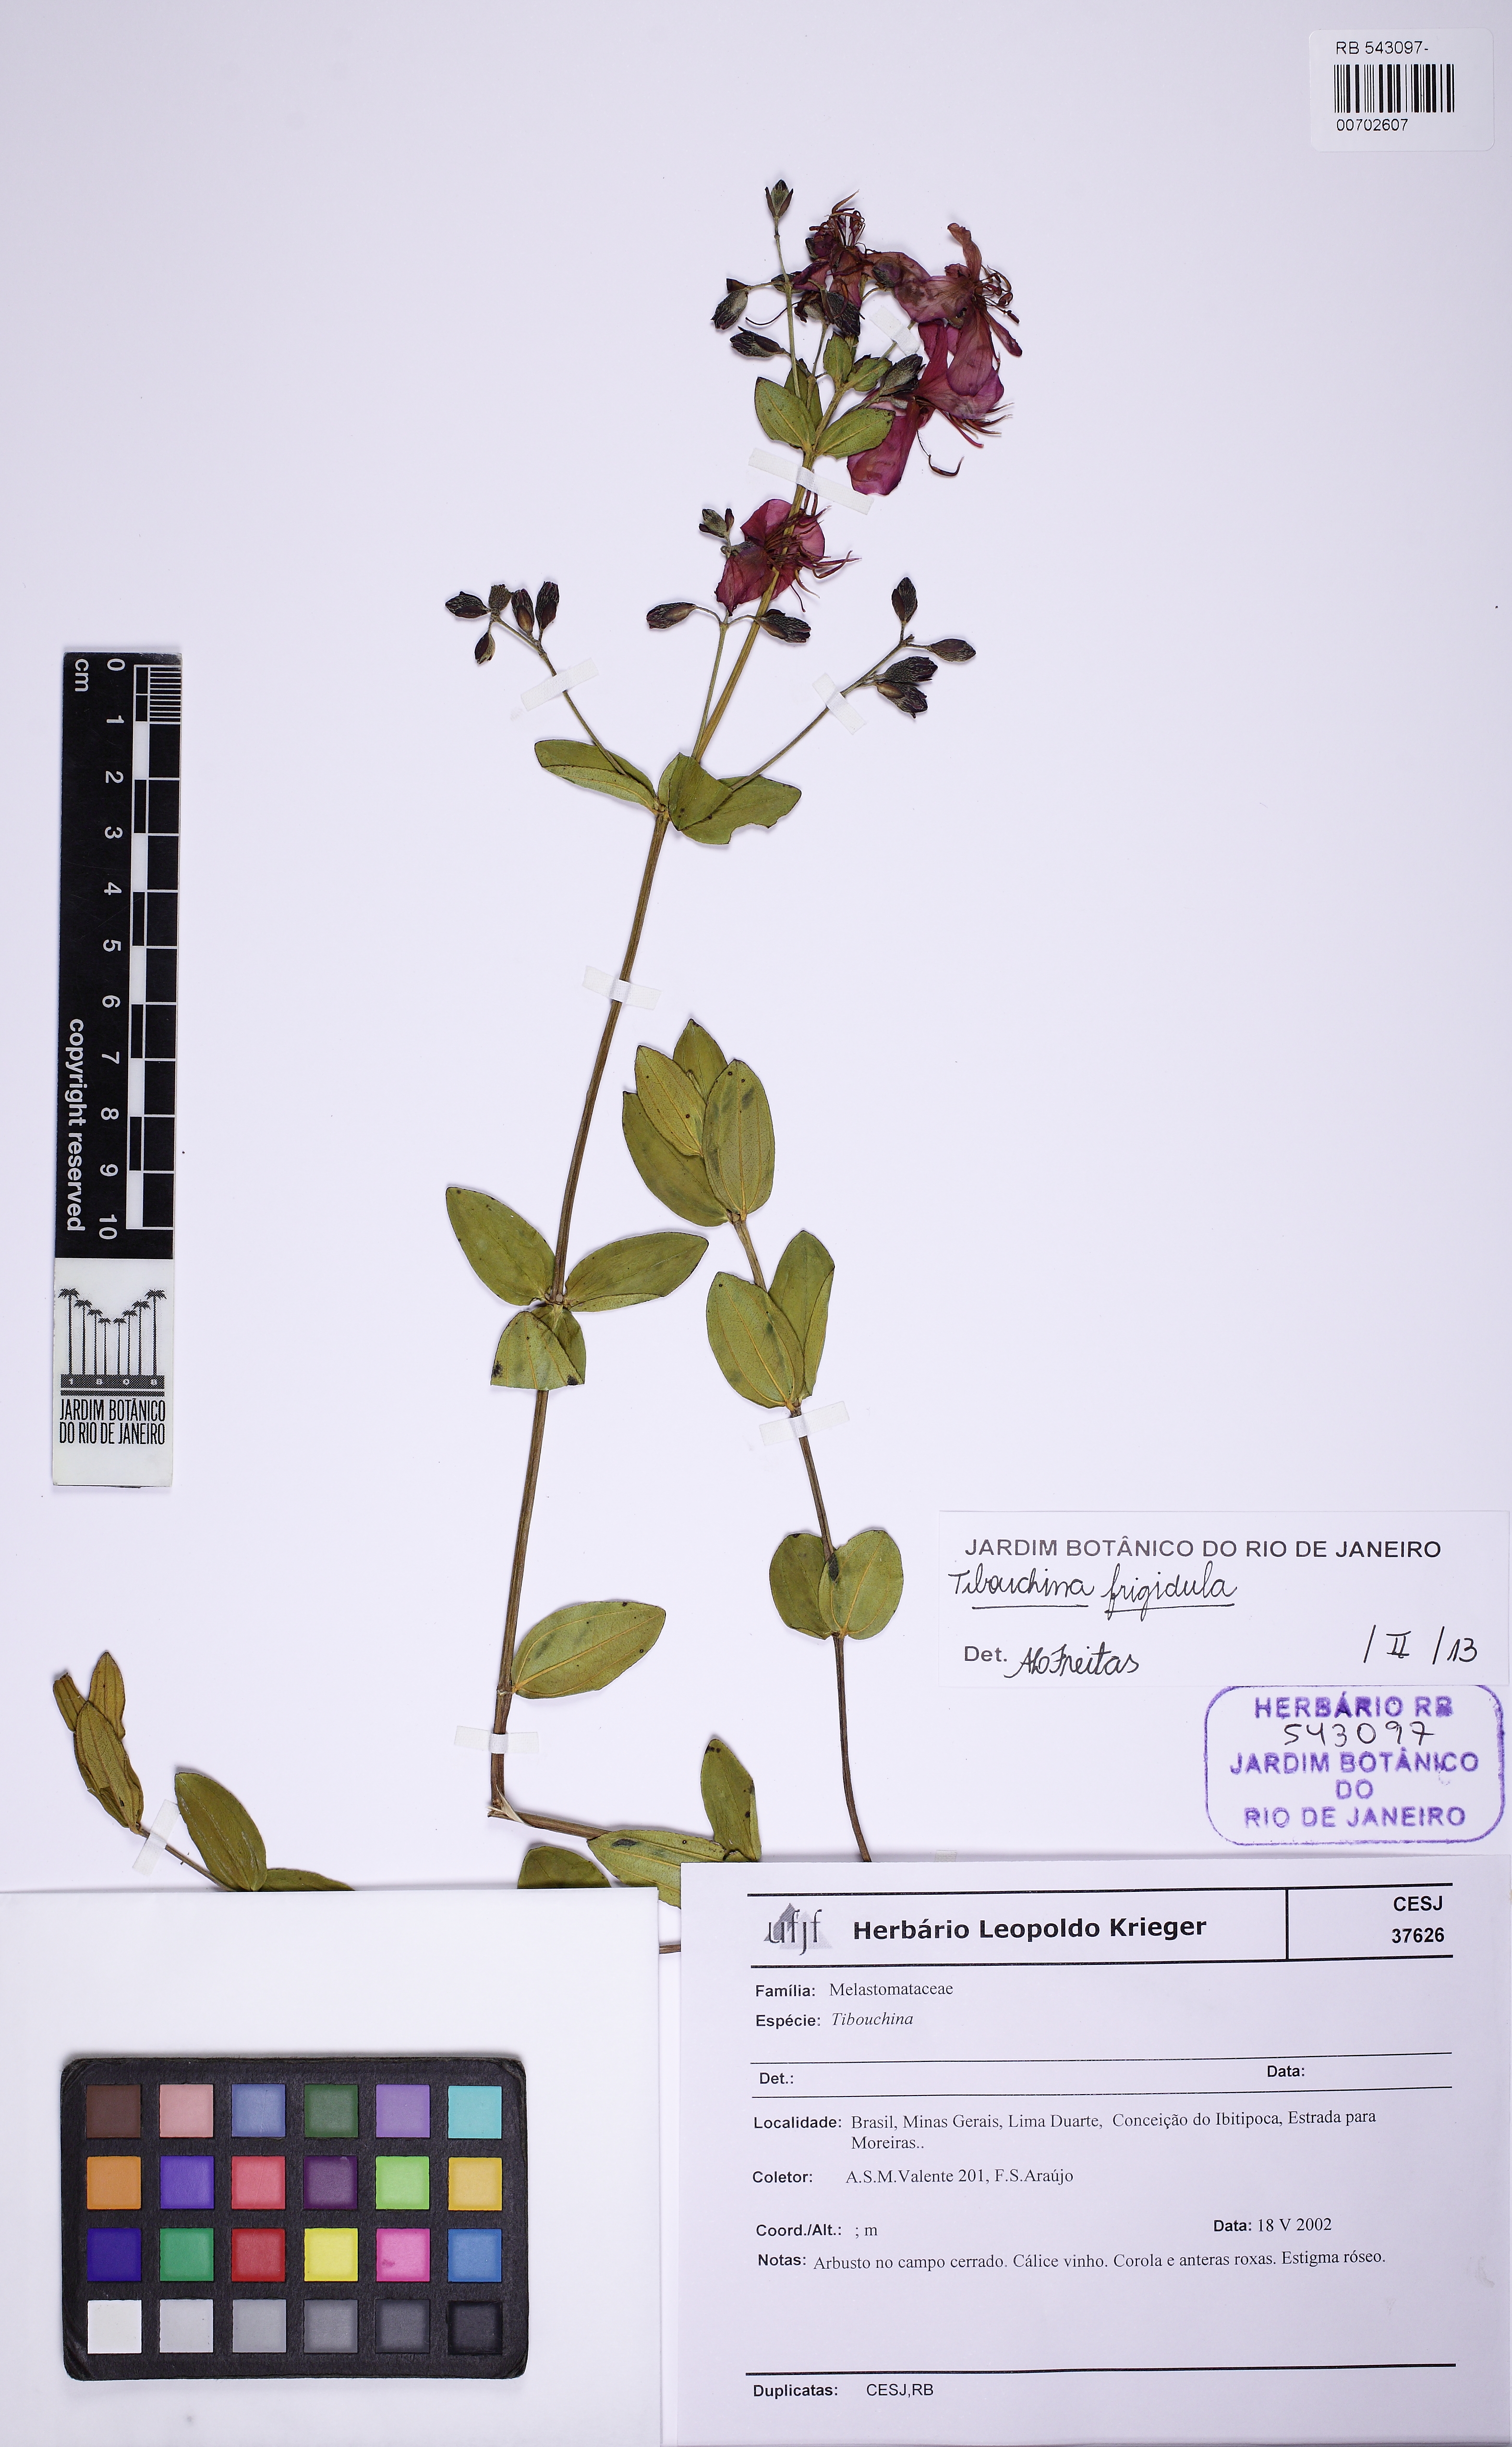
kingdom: Plantae
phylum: Tracheophyta
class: Magnoliopsida
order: Myrtales
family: Melastomataceae
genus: Pleroma
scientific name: Pleroma martiusianum
